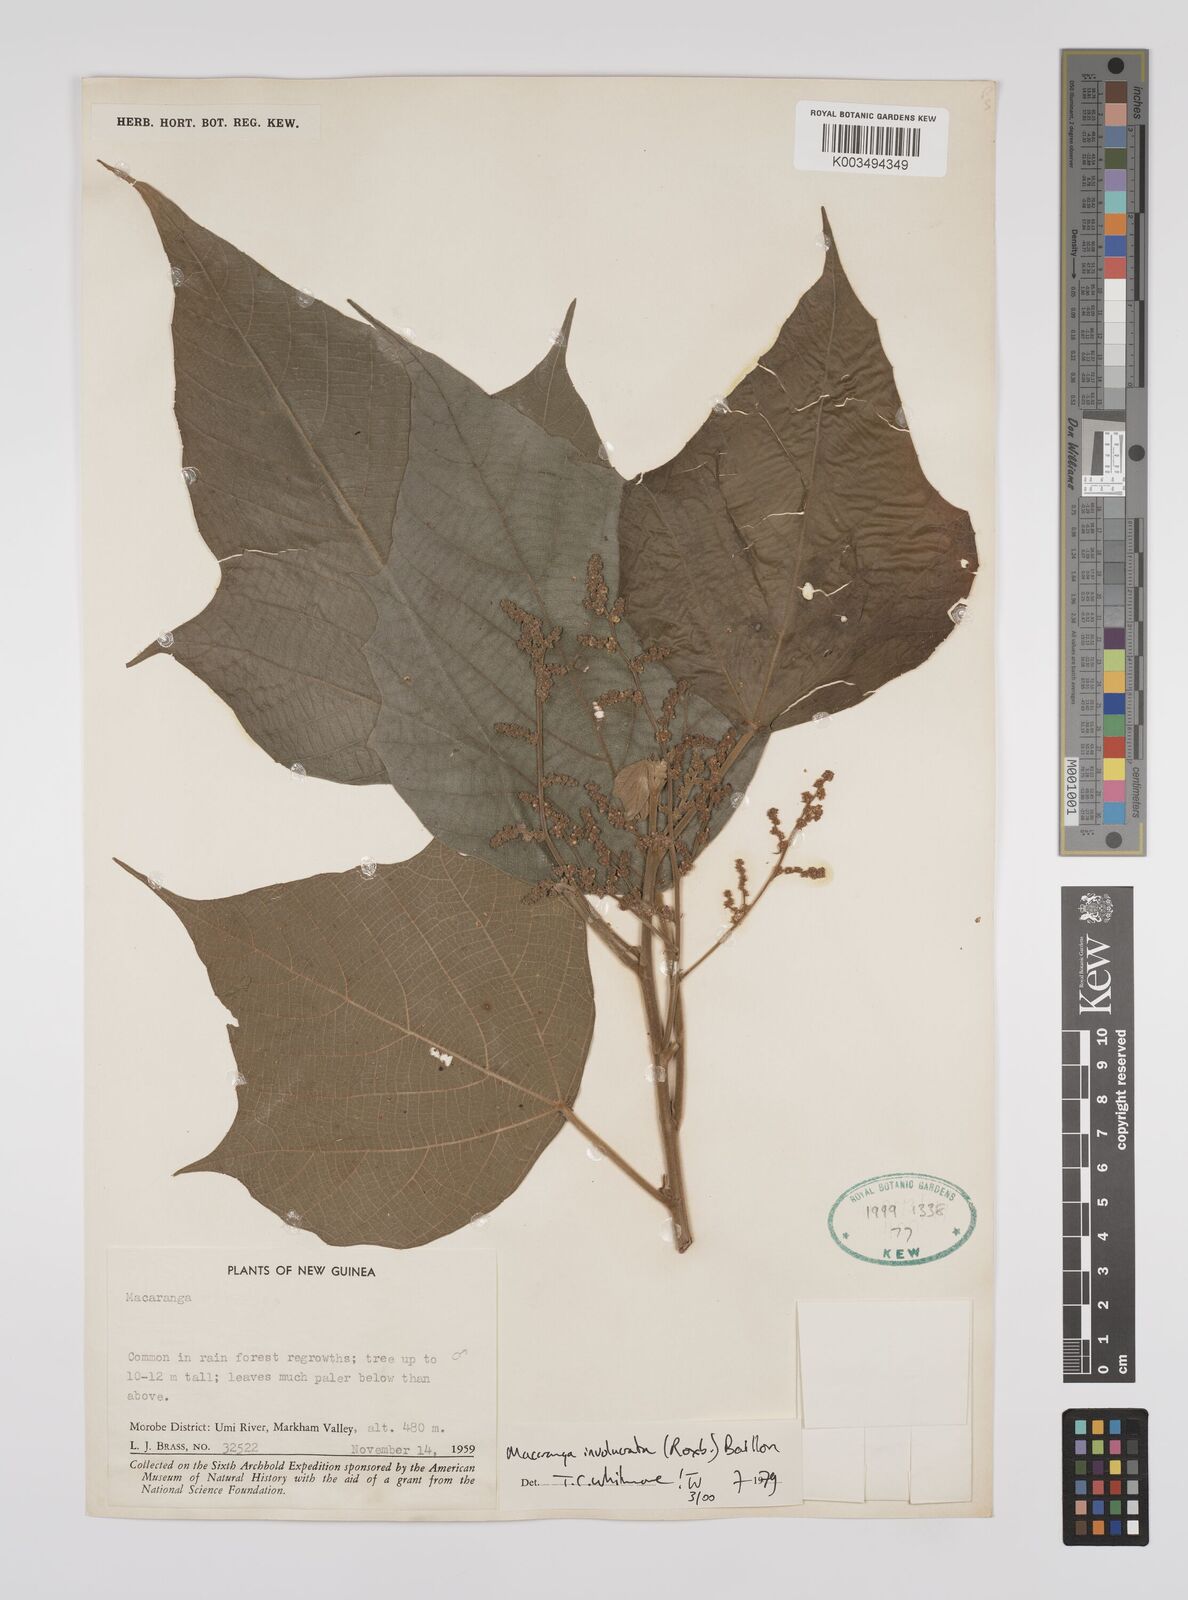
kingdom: Plantae
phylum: Tracheophyta
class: Magnoliopsida
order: Malpighiales
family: Euphorbiaceae
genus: Macaranga
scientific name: Macaranga involucrata
